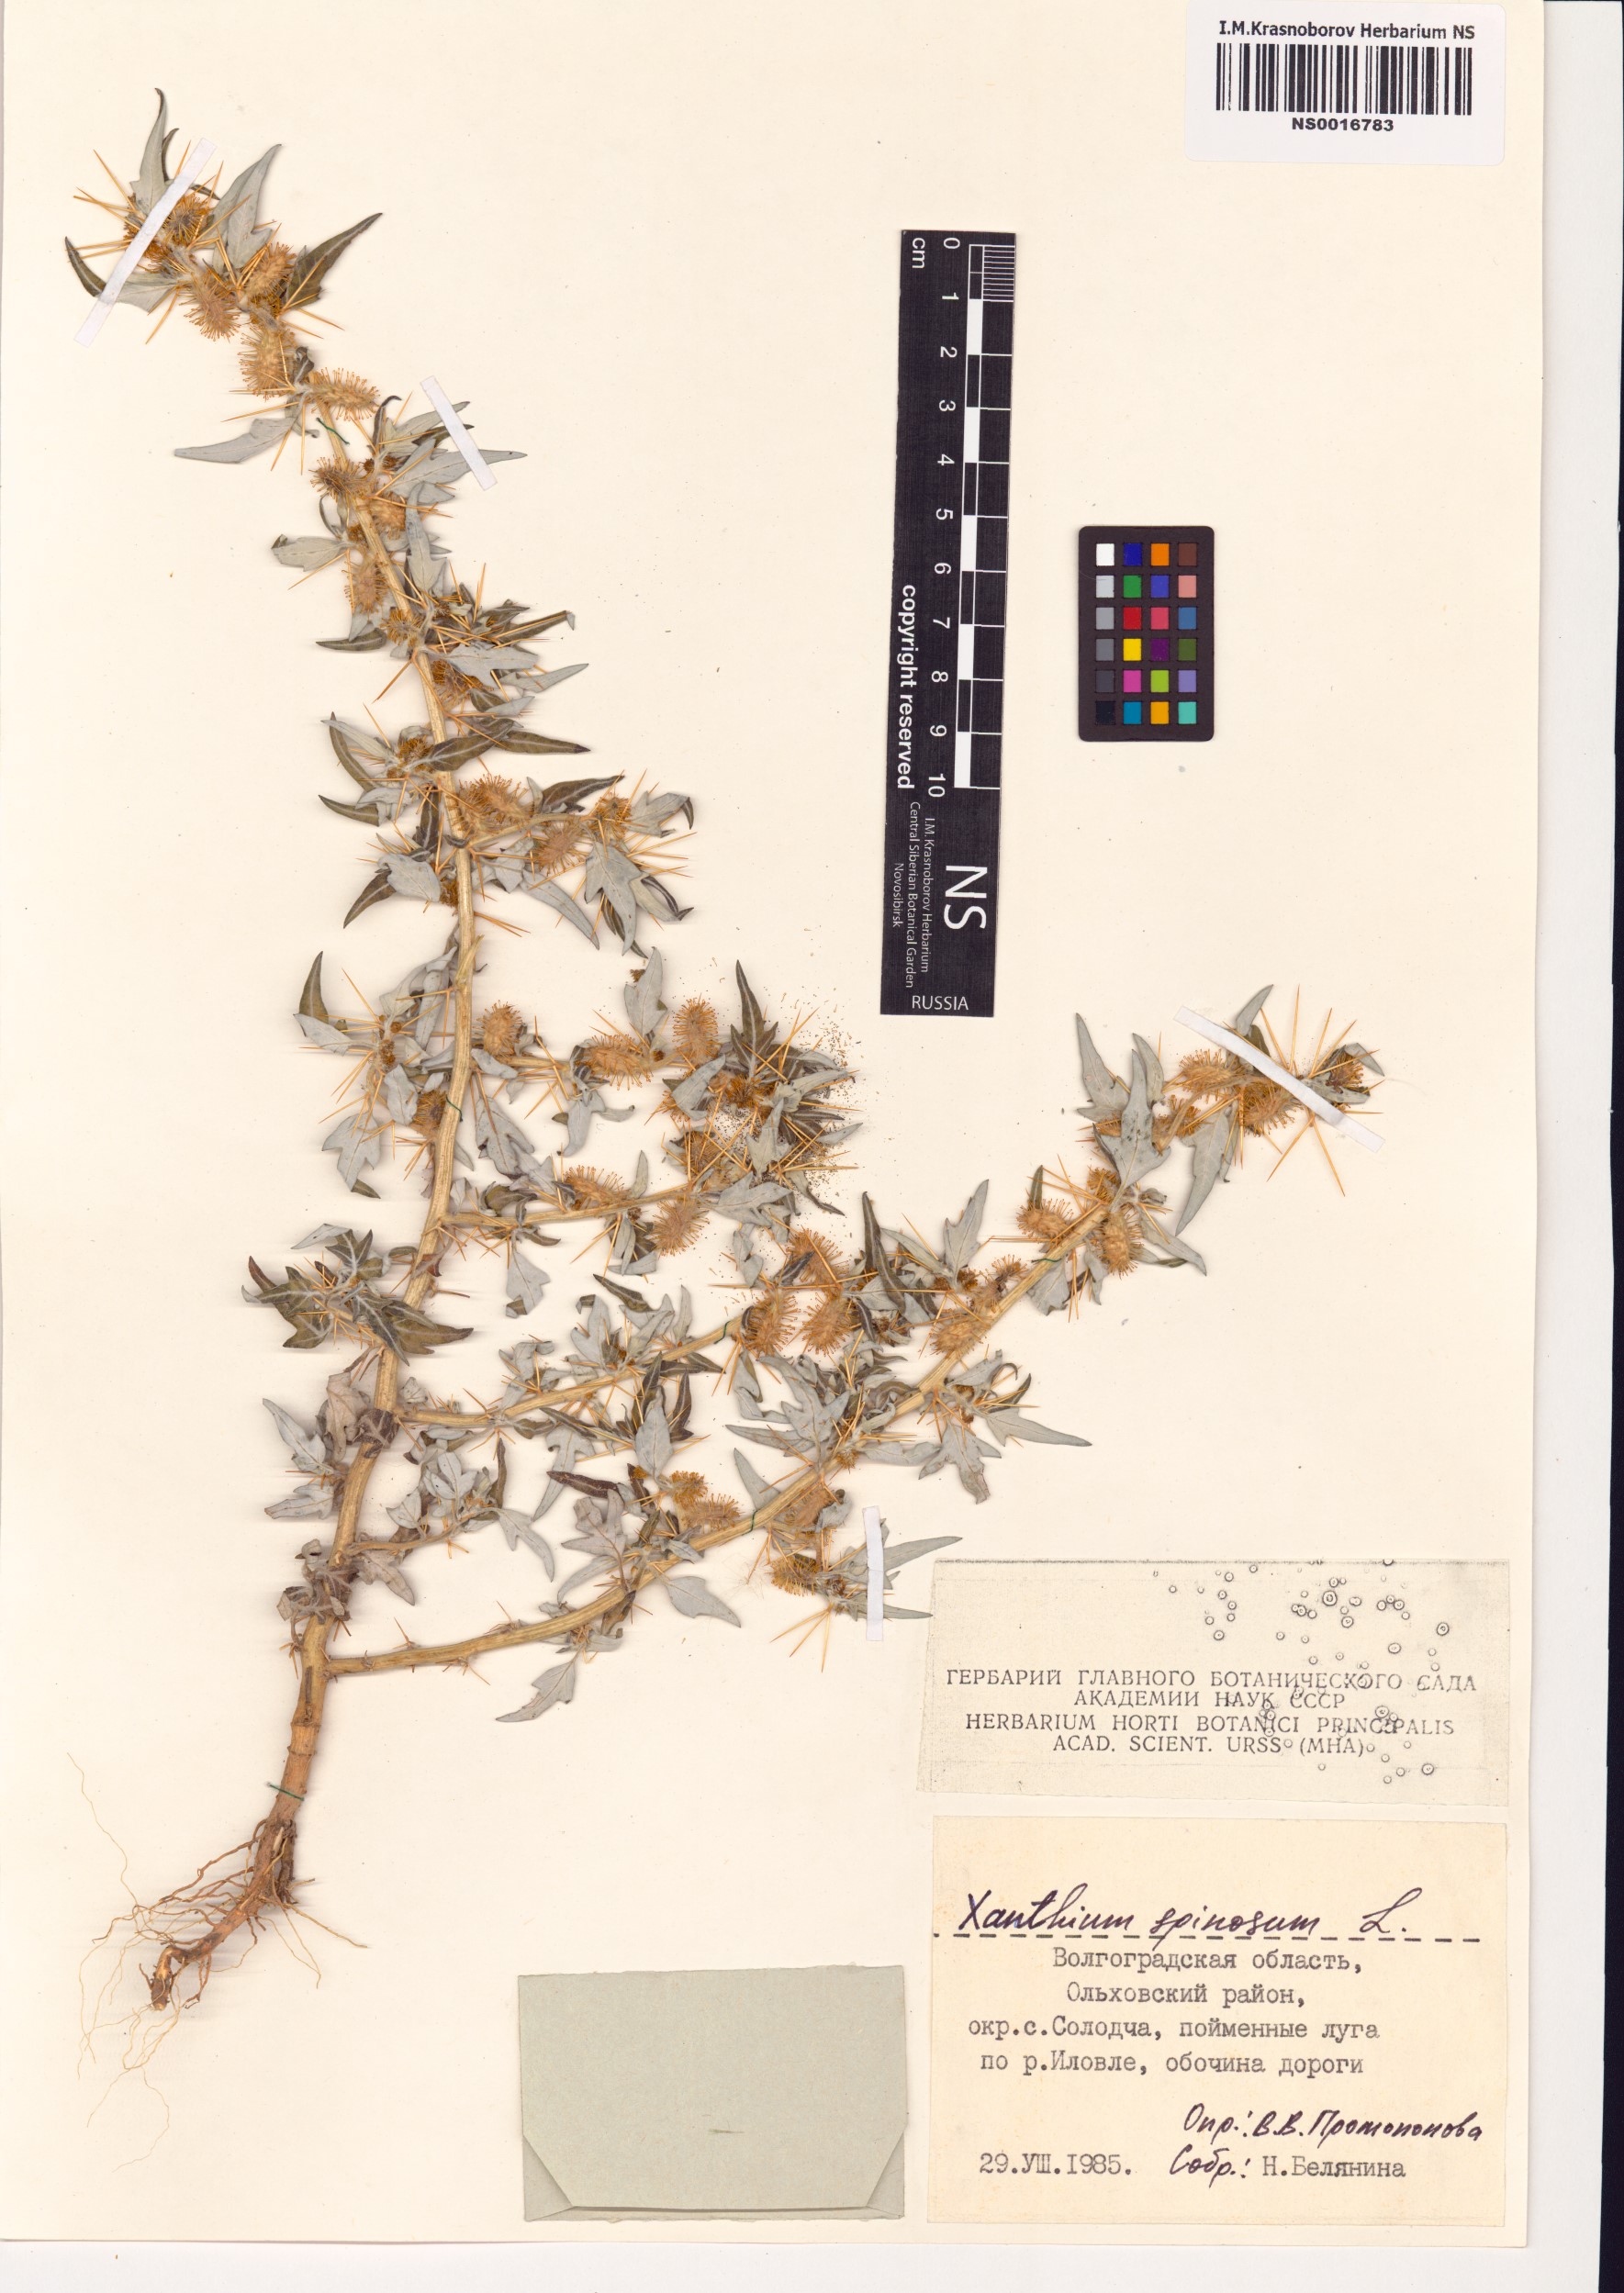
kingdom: Plantae
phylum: Tracheophyta
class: Magnoliopsida
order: Asterales
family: Asteraceae
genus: Xanthium
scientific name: Xanthium spinosum
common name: Spiny cocklebur
